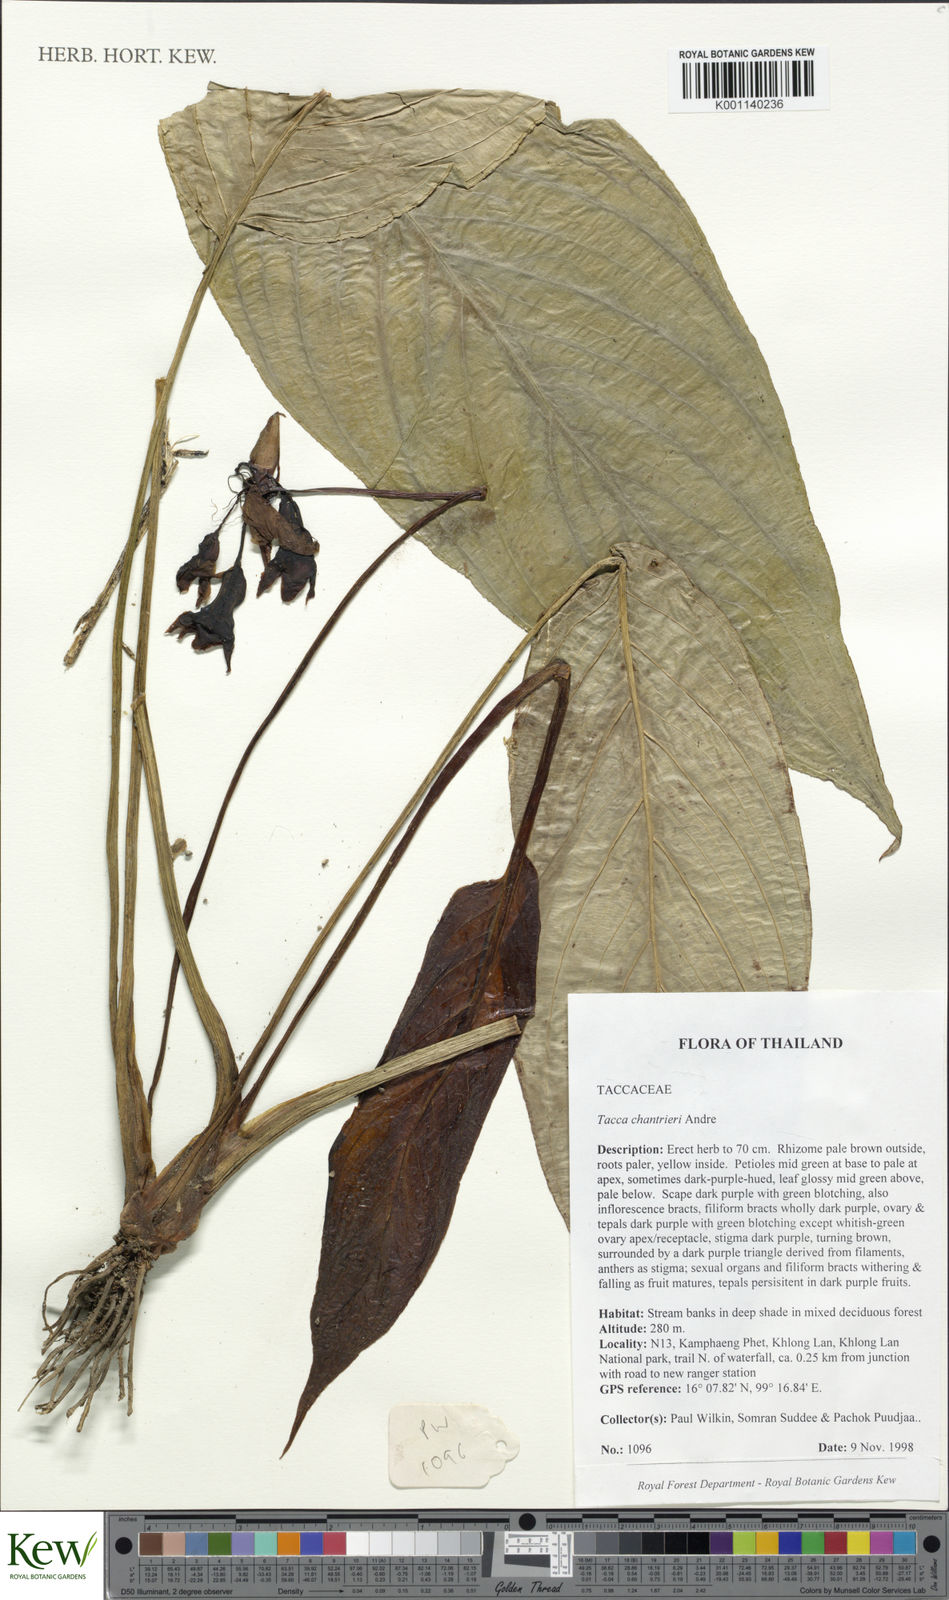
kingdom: Plantae
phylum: Tracheophyta
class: Liliopsida
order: Dioscoreales
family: Dioscoreaceae
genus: Tacca
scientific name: Tacca
